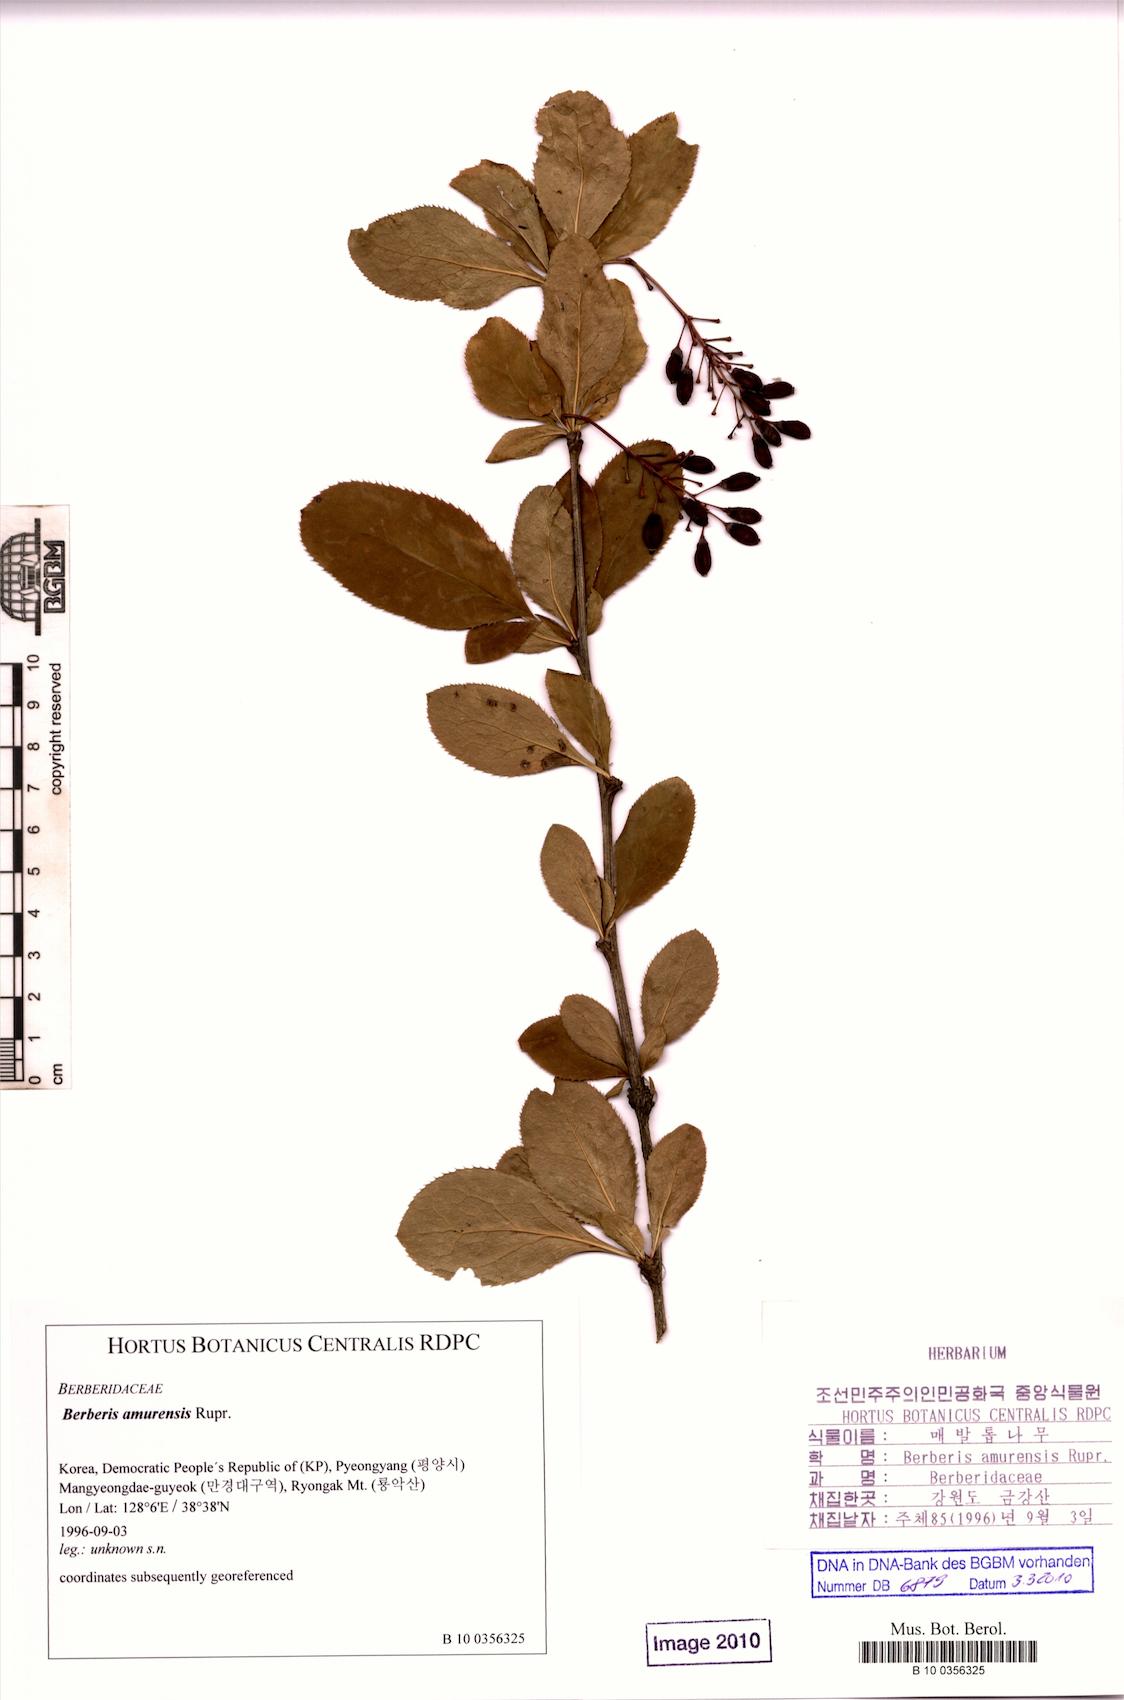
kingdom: Plantae
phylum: Tracheophyta
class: Magnoliopsida
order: Ranunculales
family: Berberidaceae
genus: Berberis
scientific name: Berberis amurensis
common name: Amur barberry
